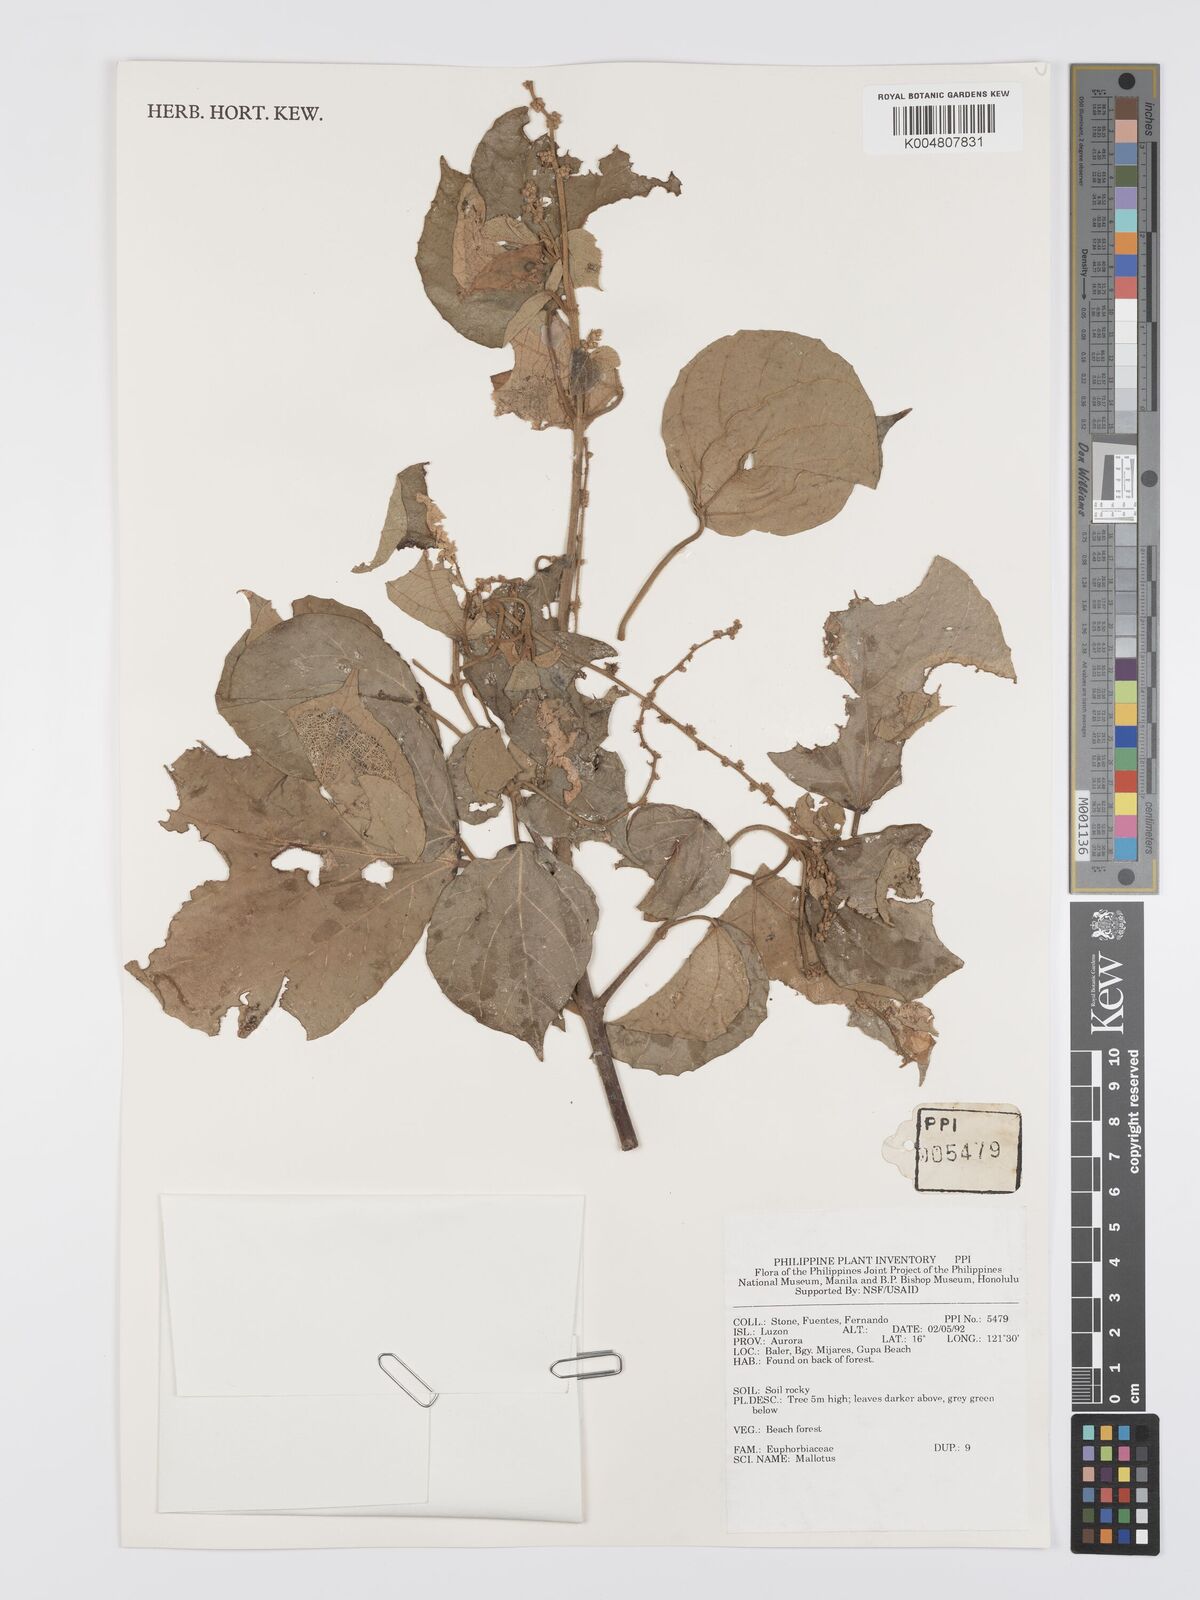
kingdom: Plantae
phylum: Tracheophyta
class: Magnoliopsida
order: Malpighiales
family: Euphorbiaceae
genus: Mallotus
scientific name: Mallotus
